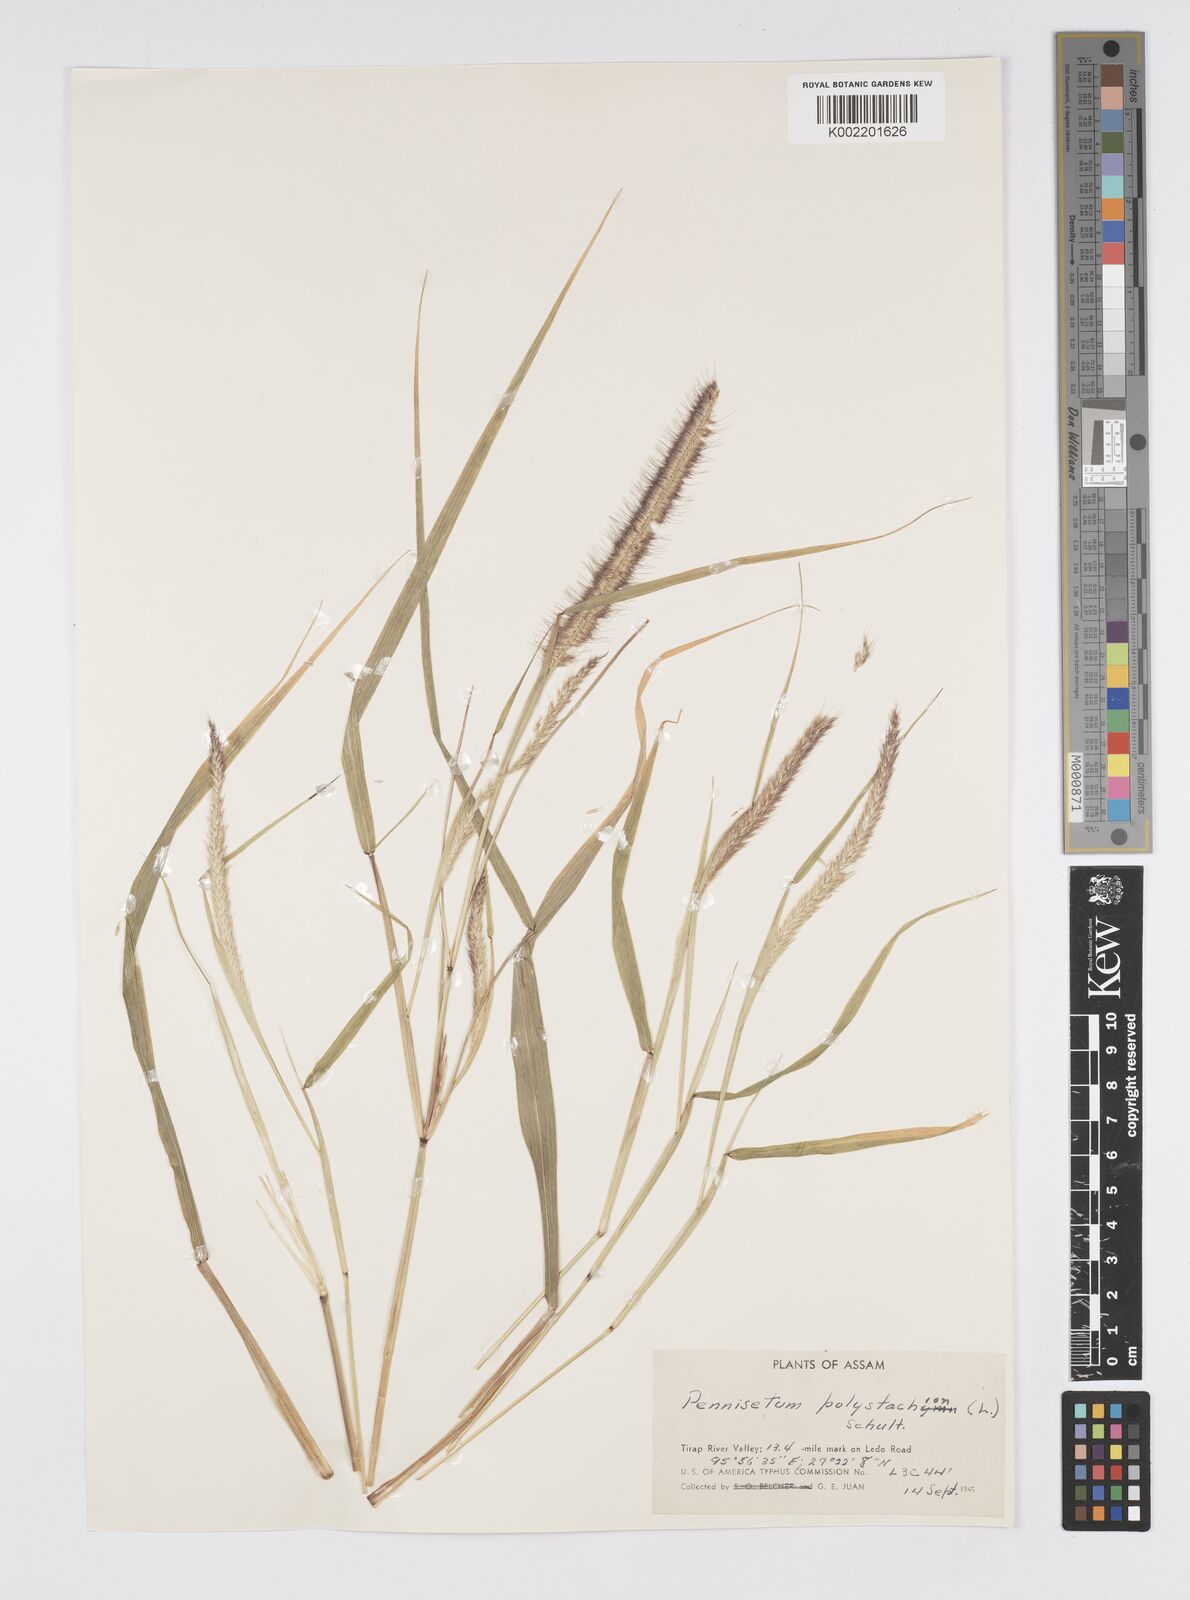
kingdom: Plantae
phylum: Tracheophyta
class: Liliopsida
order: Poales
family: Poaceae
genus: Setaria
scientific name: Setaria parviflora
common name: Knotroot bristle-grass
